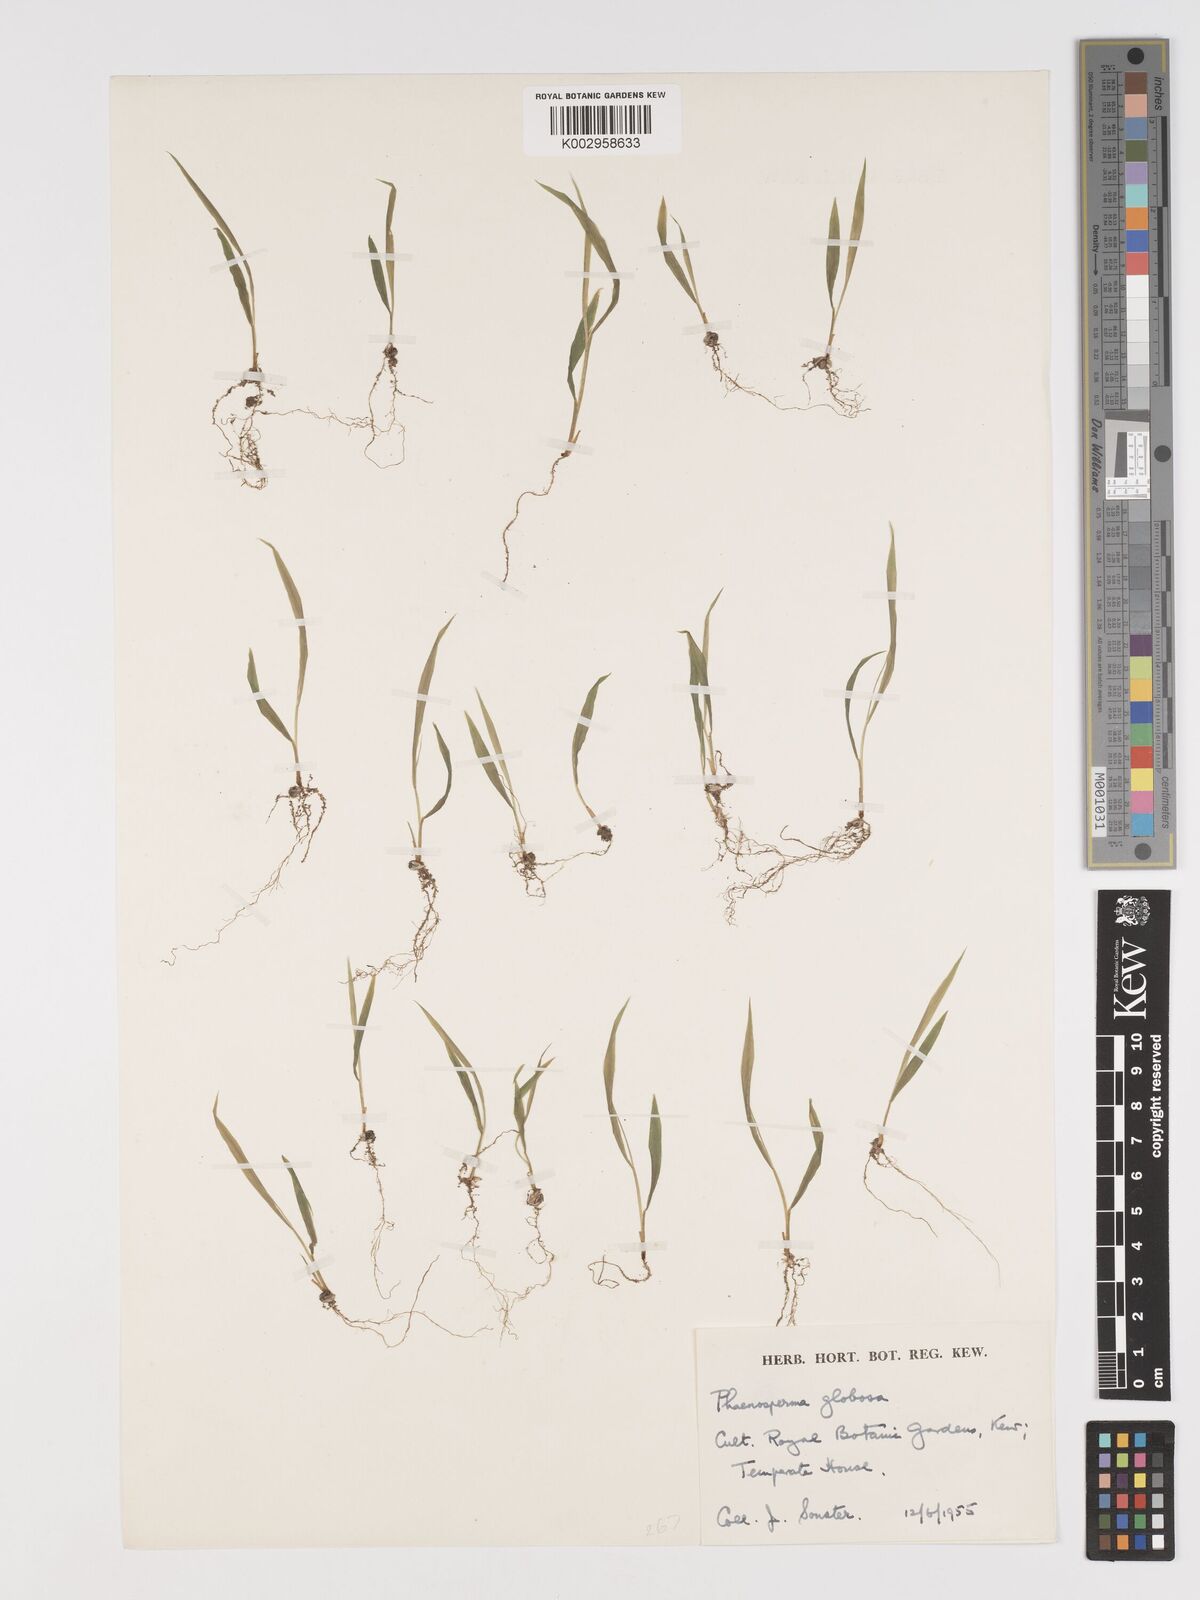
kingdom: Plantae
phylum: Tracheophyta
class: Liliopsida
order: Poales
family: Poaceae
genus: Phaenosperma
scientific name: Phaenosperma globosum
